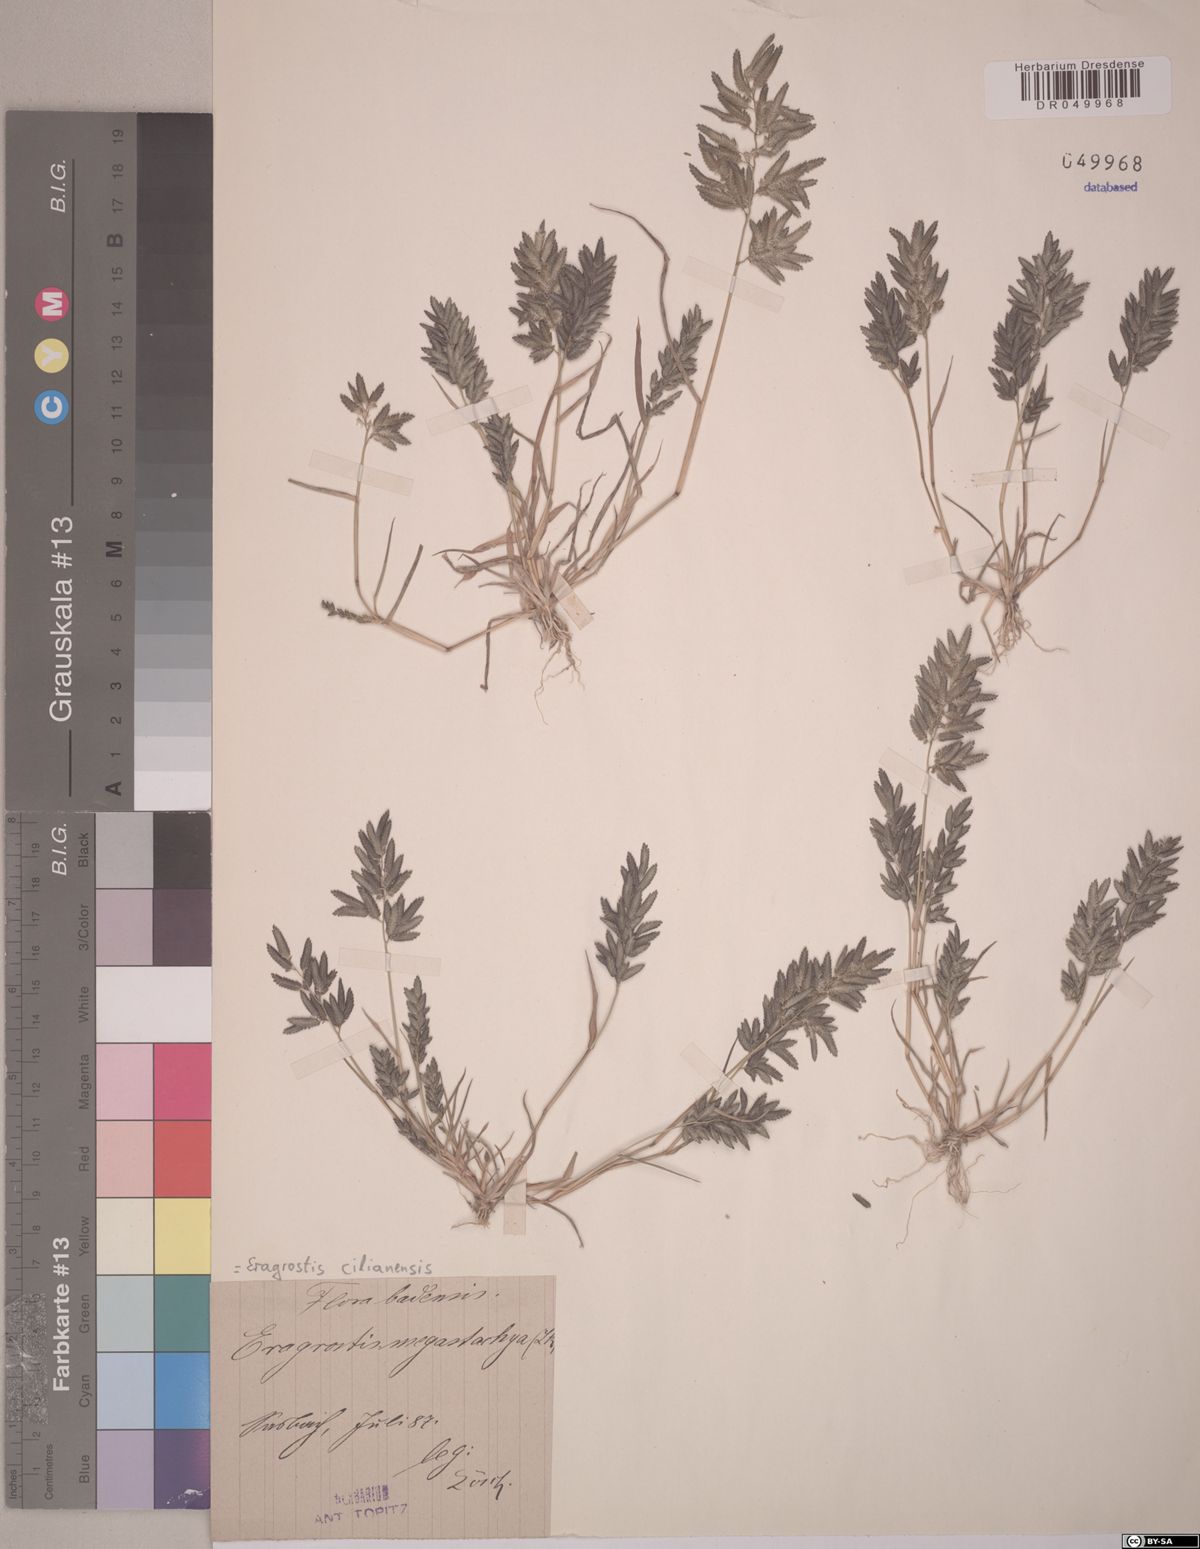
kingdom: Plantae
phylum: Tracheophyta
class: Liliopsida
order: Poales
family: Poaceae
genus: Eragrostis
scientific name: Eragrostis cilianensis
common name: Stinkgrass
